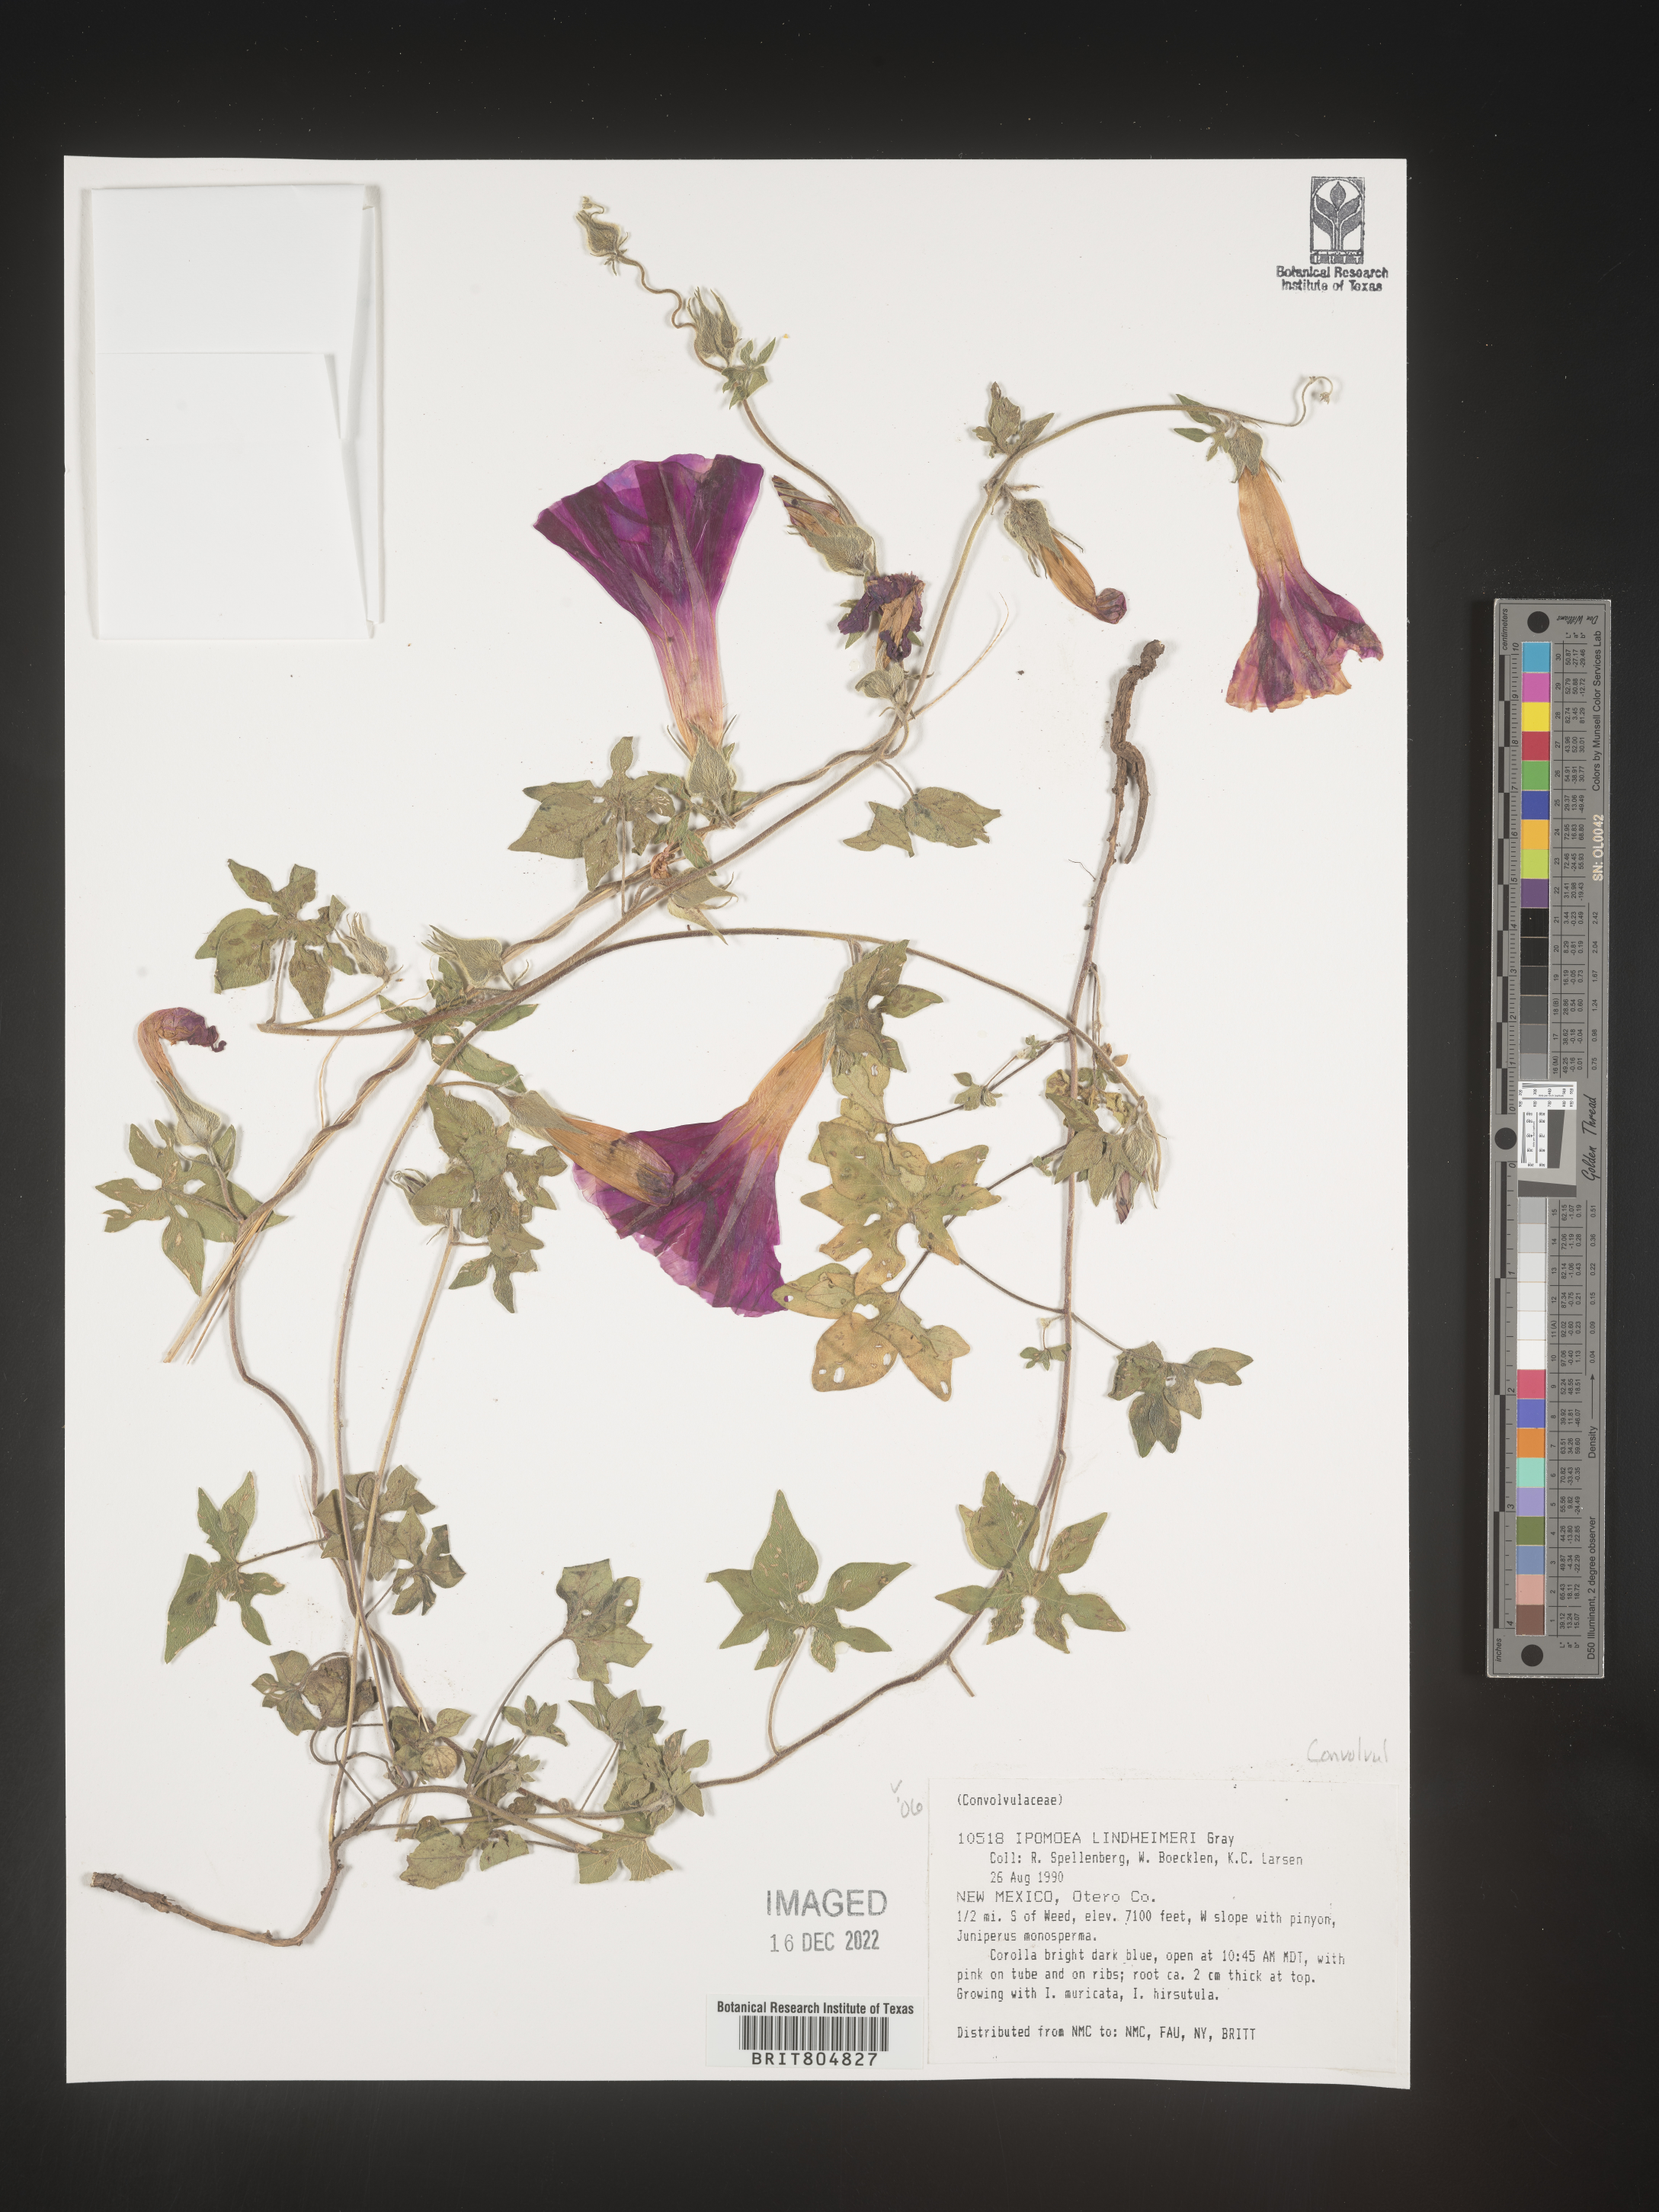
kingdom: Plantae
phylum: Tracheophyta
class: Magnoliopsida
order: Solanales
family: Convolvulaceae
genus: Ipomoea
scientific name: Ipomoea lindheimeri
